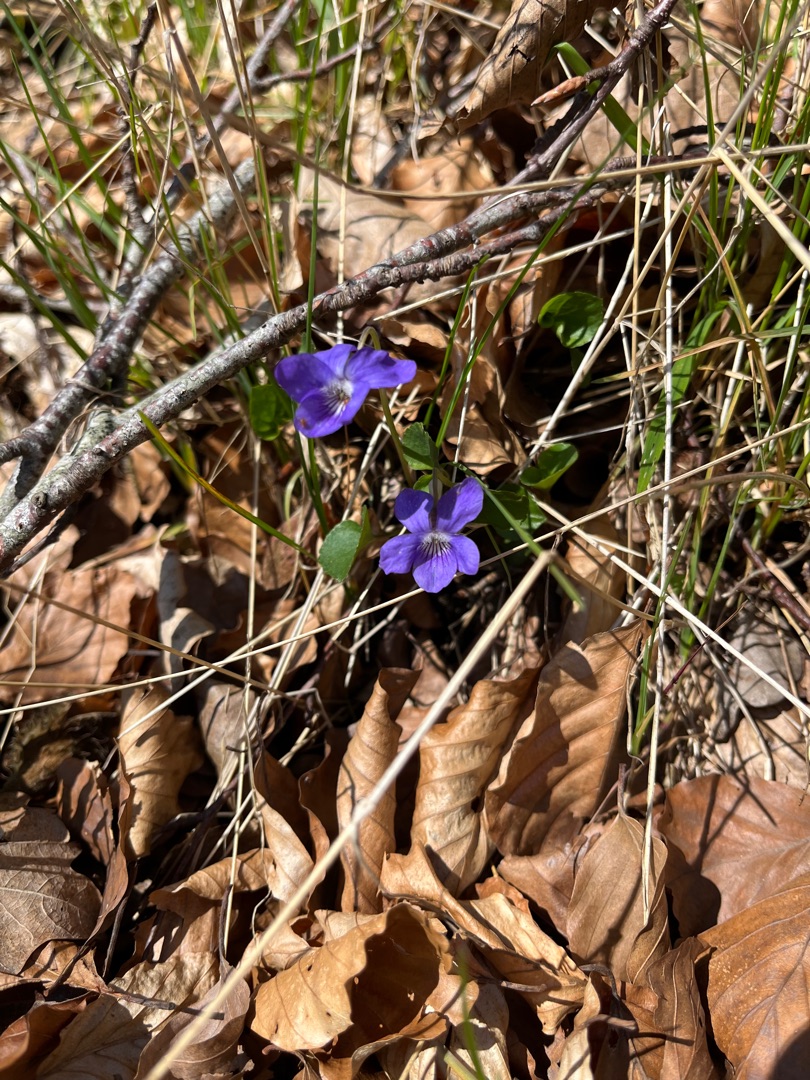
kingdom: Plantae
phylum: Tracheophyta
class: Magnoliopsida
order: Malpighiales
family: Violaceae
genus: Viola
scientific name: Viola reichenbachiana
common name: Skov-viol
